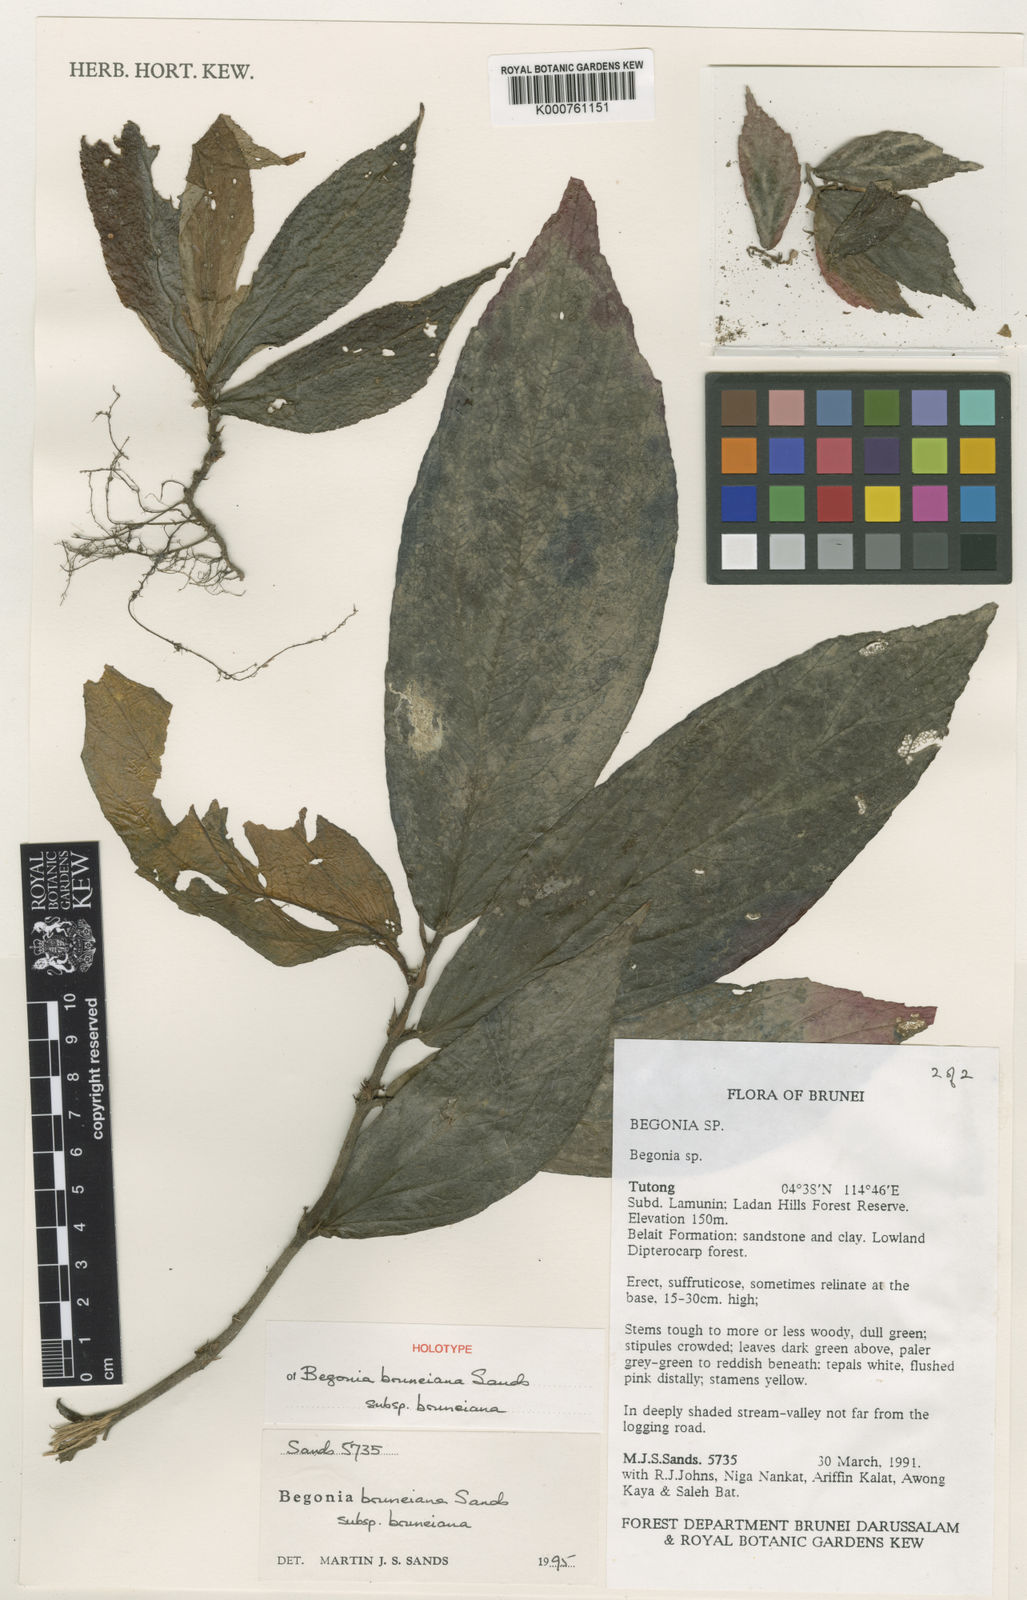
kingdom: Plantae
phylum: Tracheophyta
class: Magnoliopsida
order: Cucurbitales
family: Begoniaceae
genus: Begonia
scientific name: Begonia bruneiana
